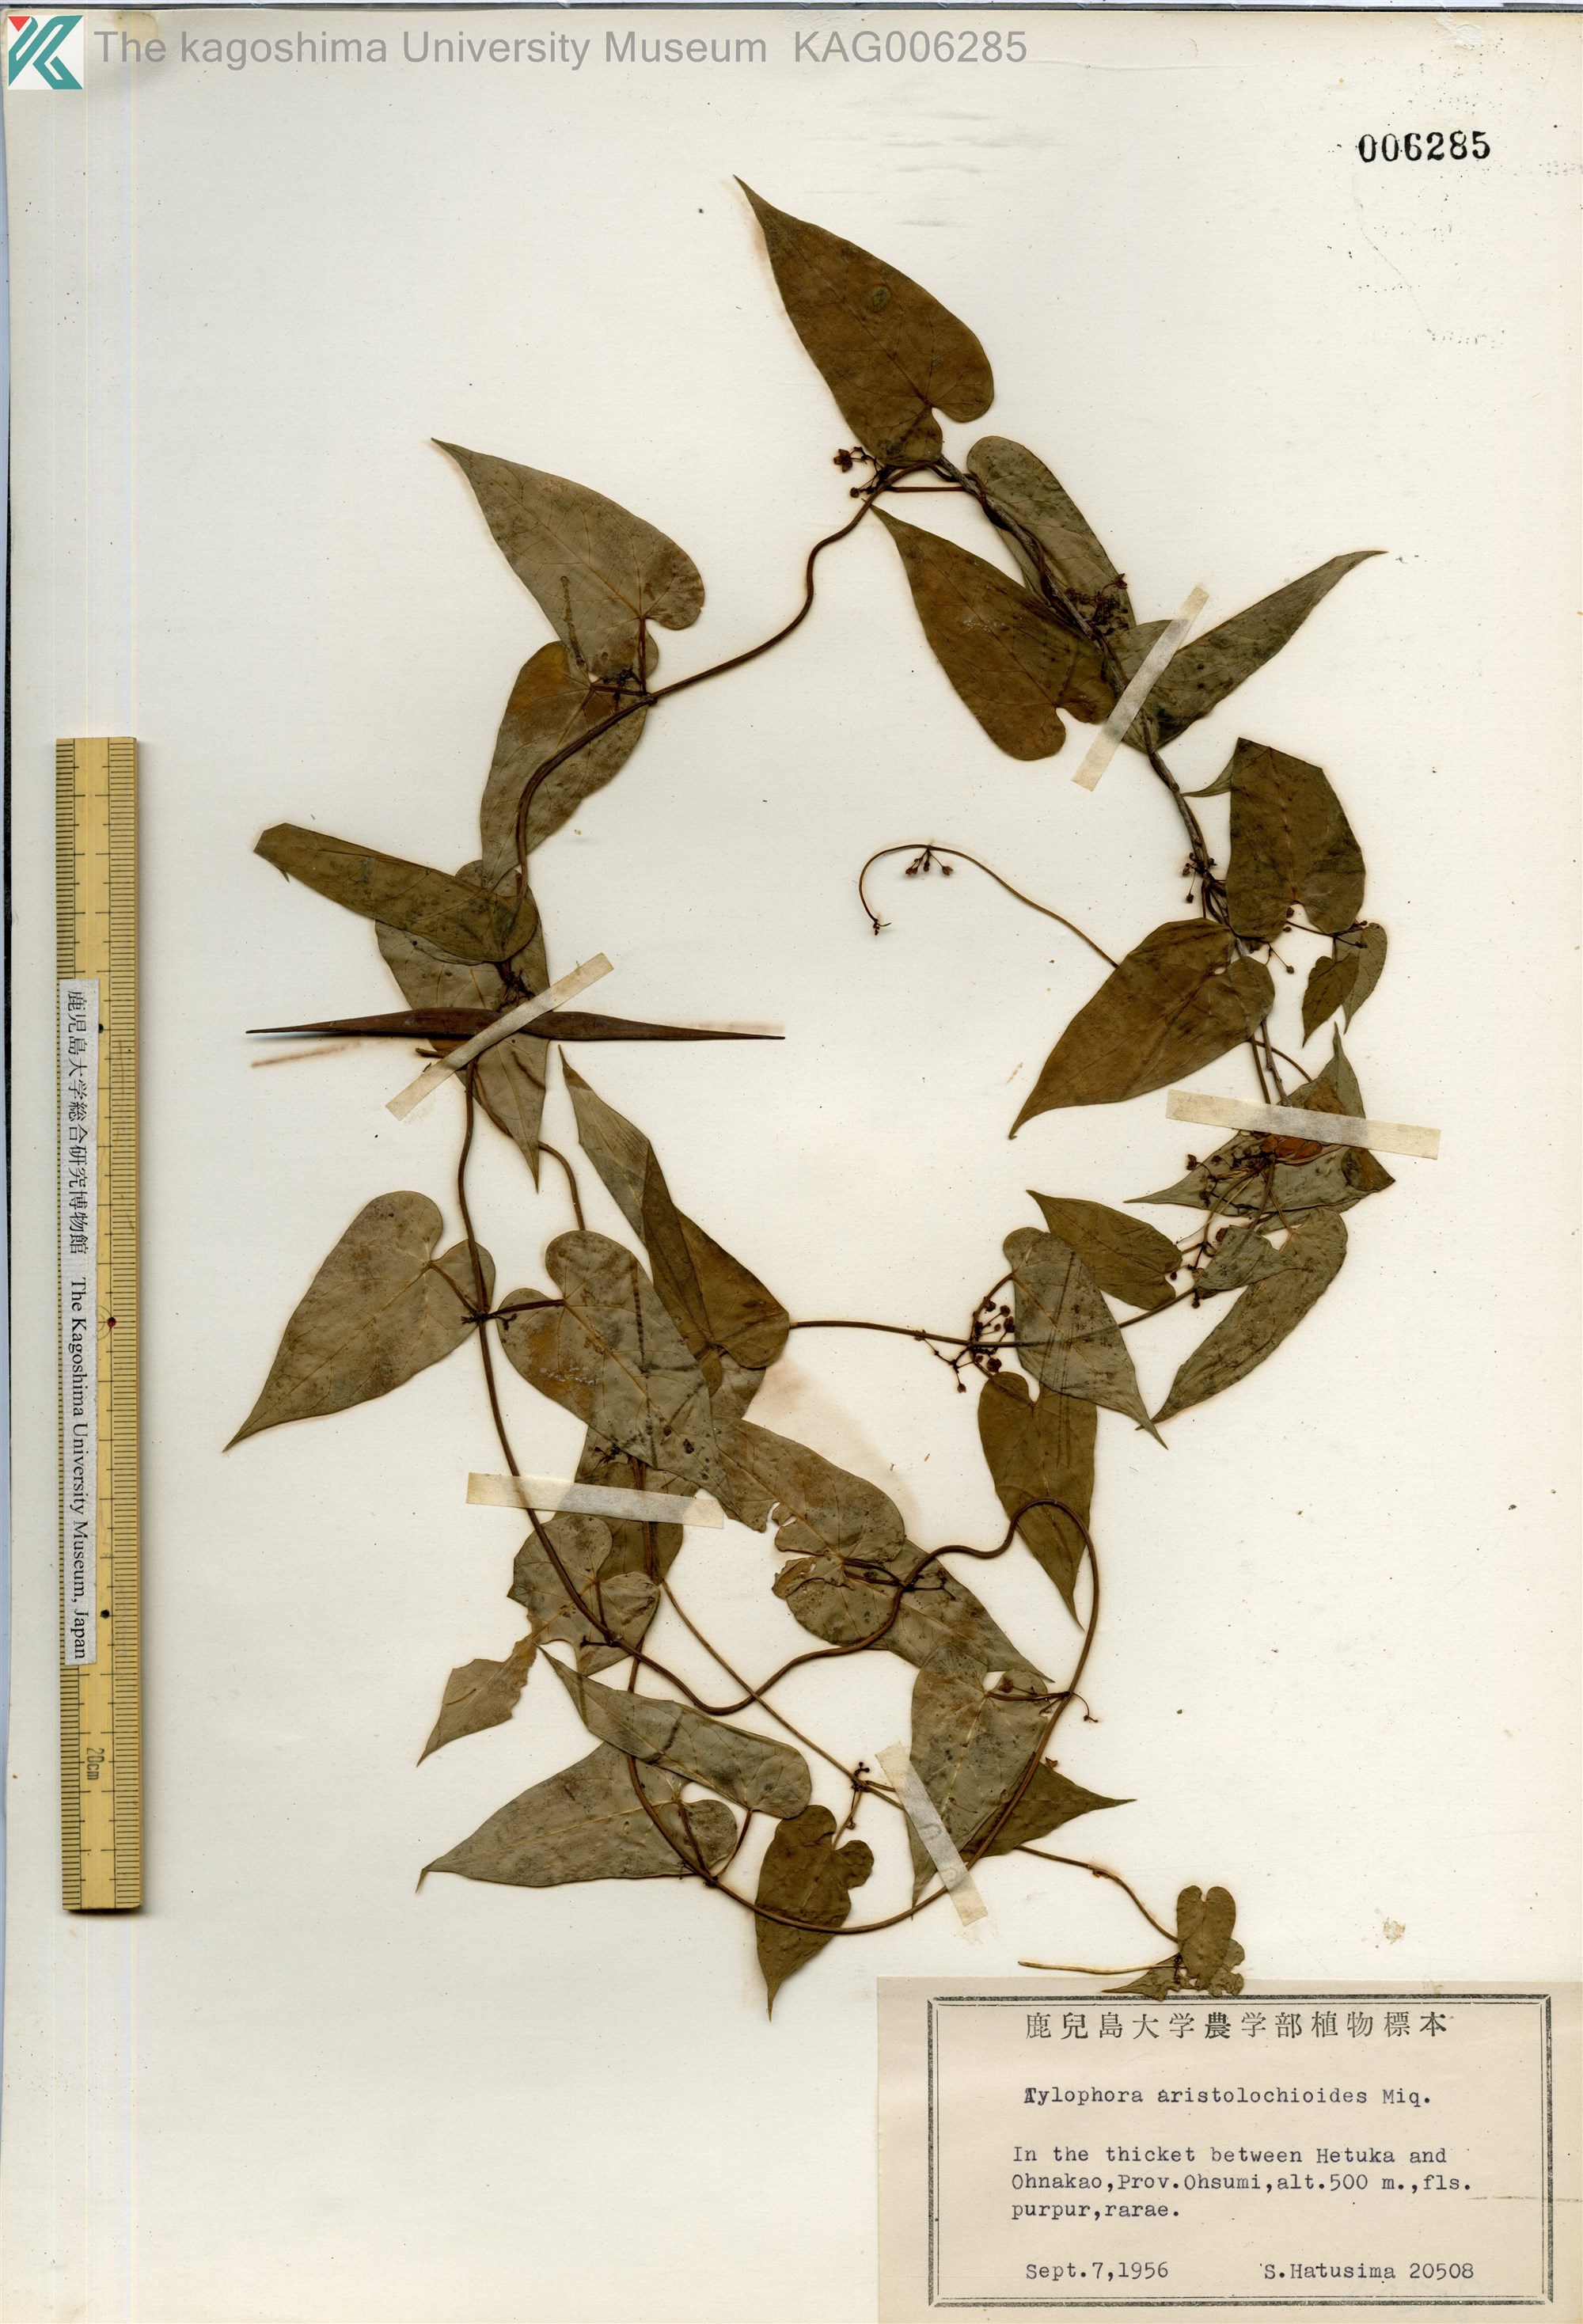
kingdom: Plantae
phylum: Tracheophyta
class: Magnoliopsida
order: Gentianales
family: Apocynaceae
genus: Vincetoxicum
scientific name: Vincetoxicum aristolochioides
